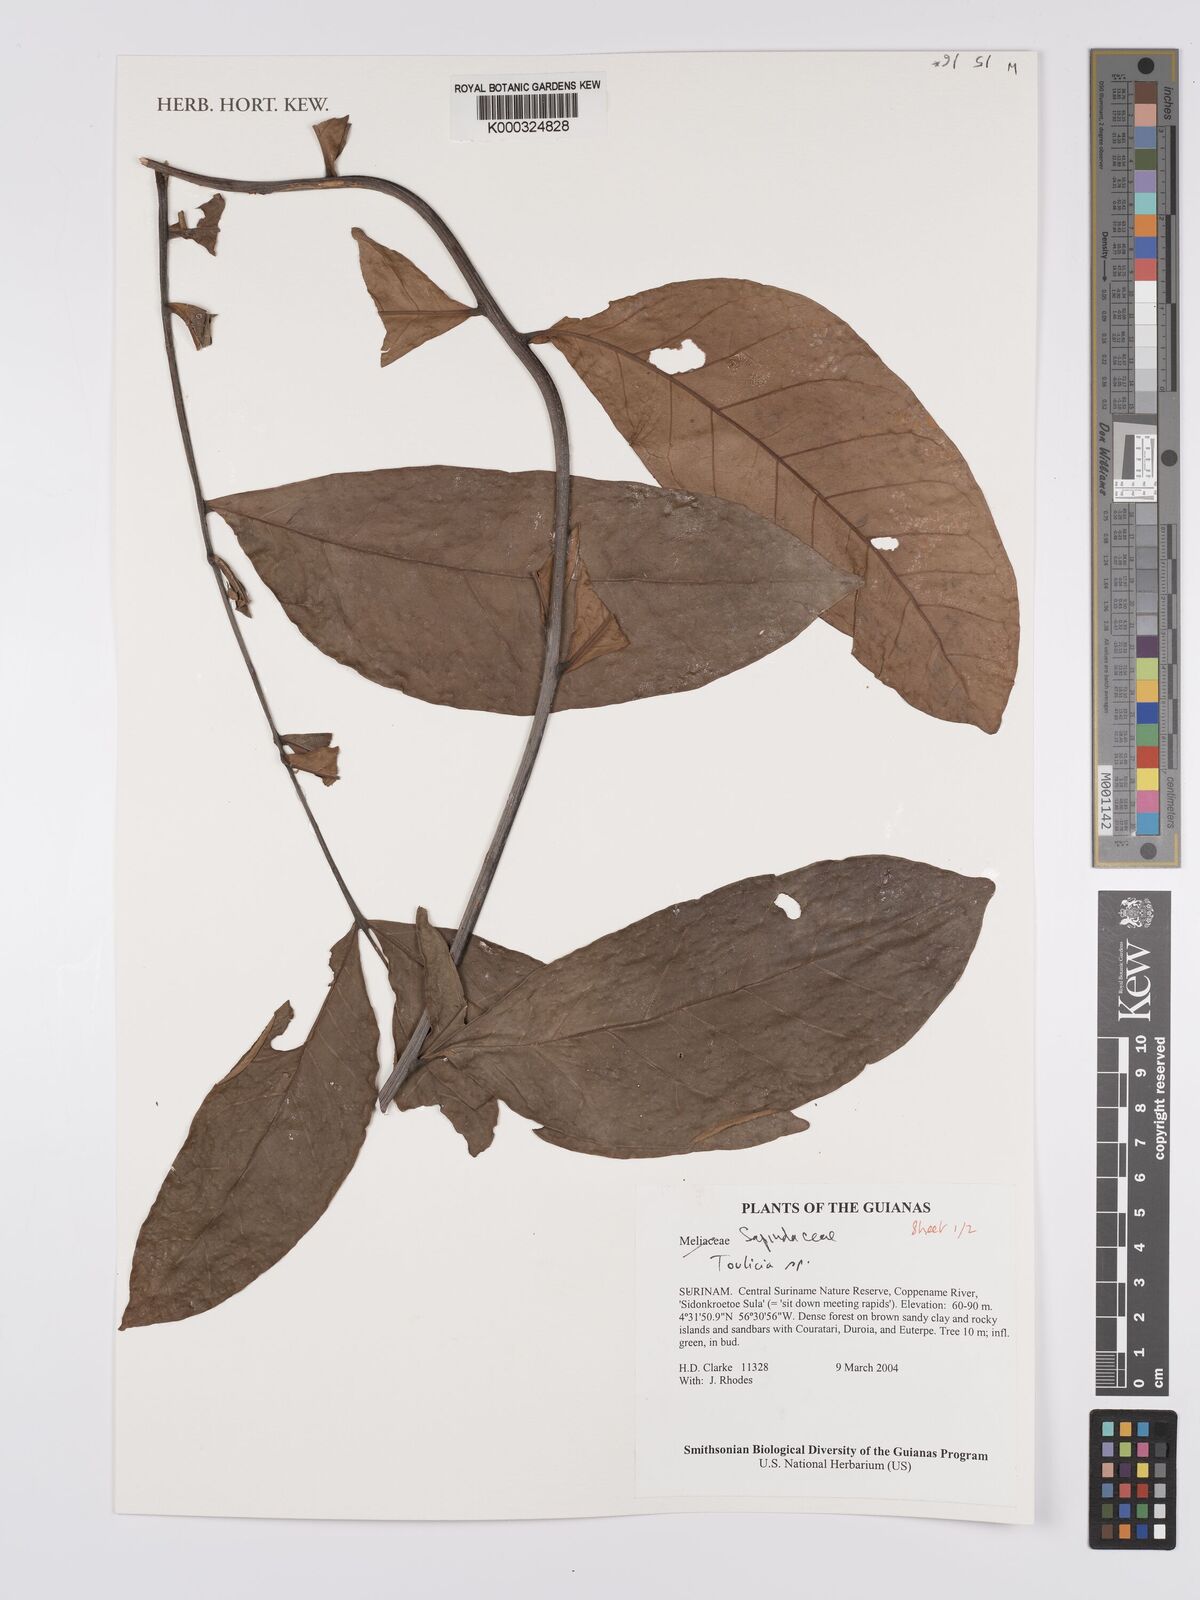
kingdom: Plantae
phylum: Tracheophyta
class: Magnoliopsida
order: Sapindales
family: Sapindaceae
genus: Toulicia
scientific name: Toulicia
